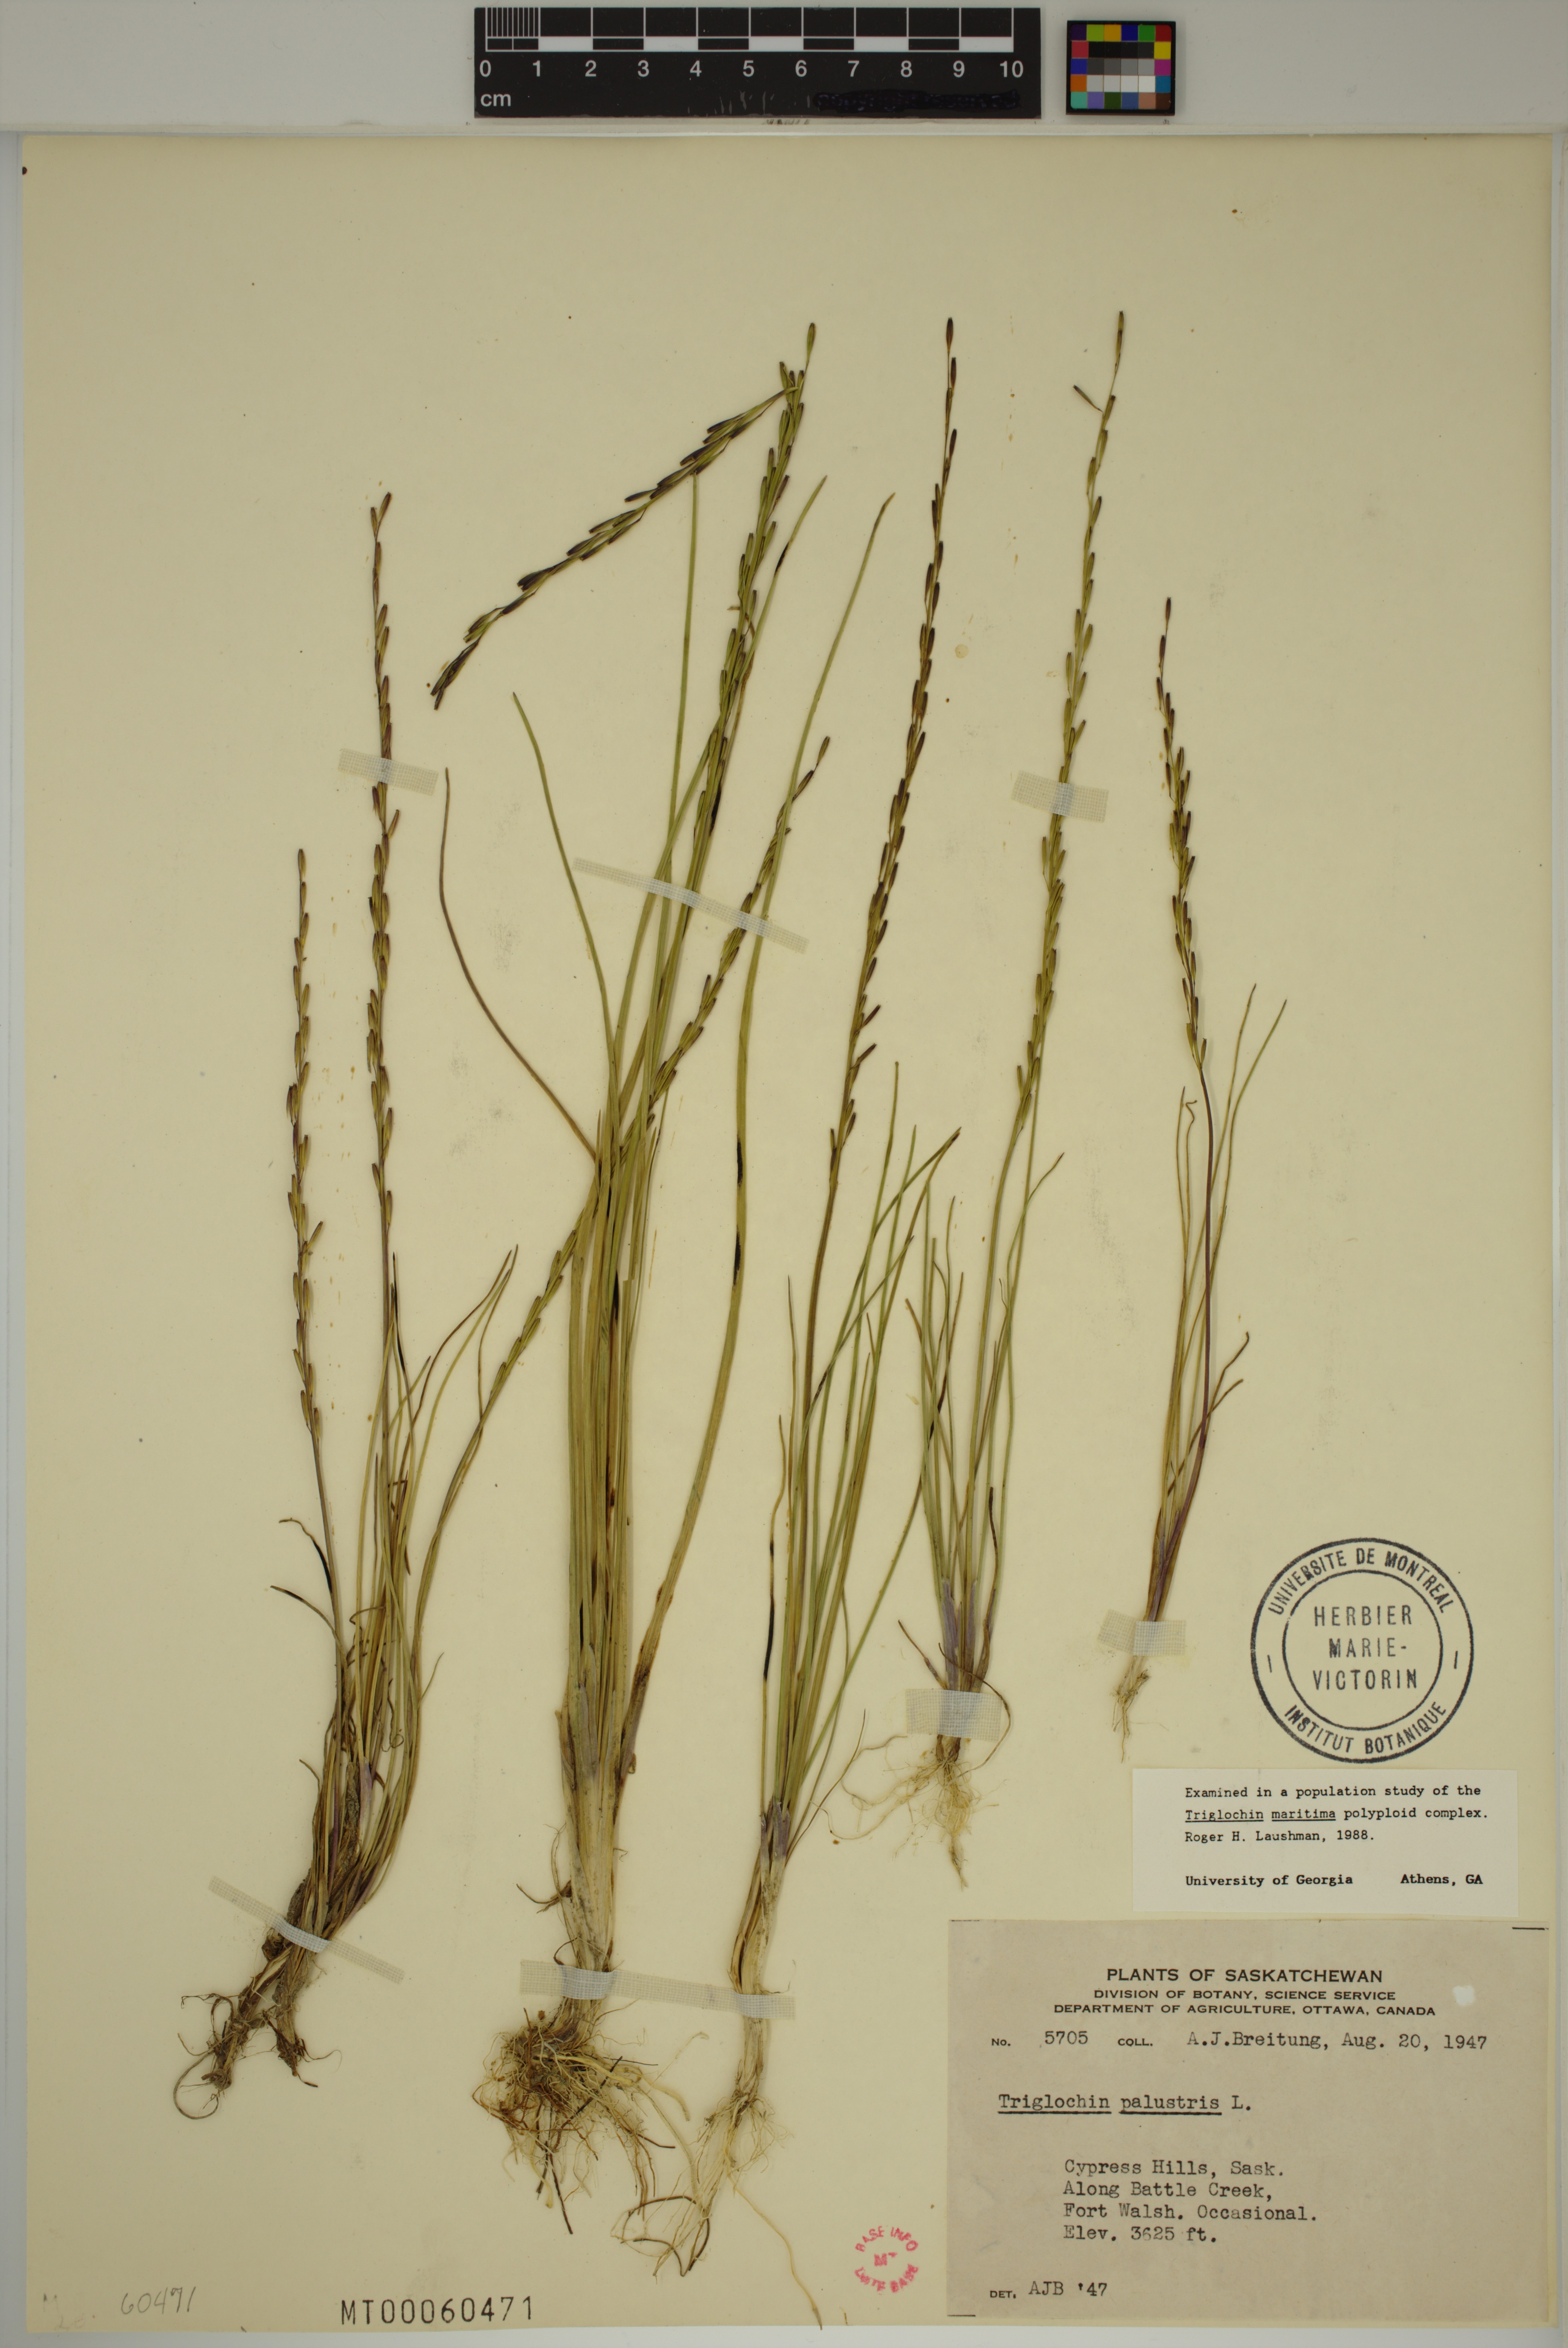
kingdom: Plantae
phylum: Tracheophyta
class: Liliopsida
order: Alismatales
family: Juncaginaceae
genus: Triglochin
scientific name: Triglochin palustris
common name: Marsh arrowgrass
